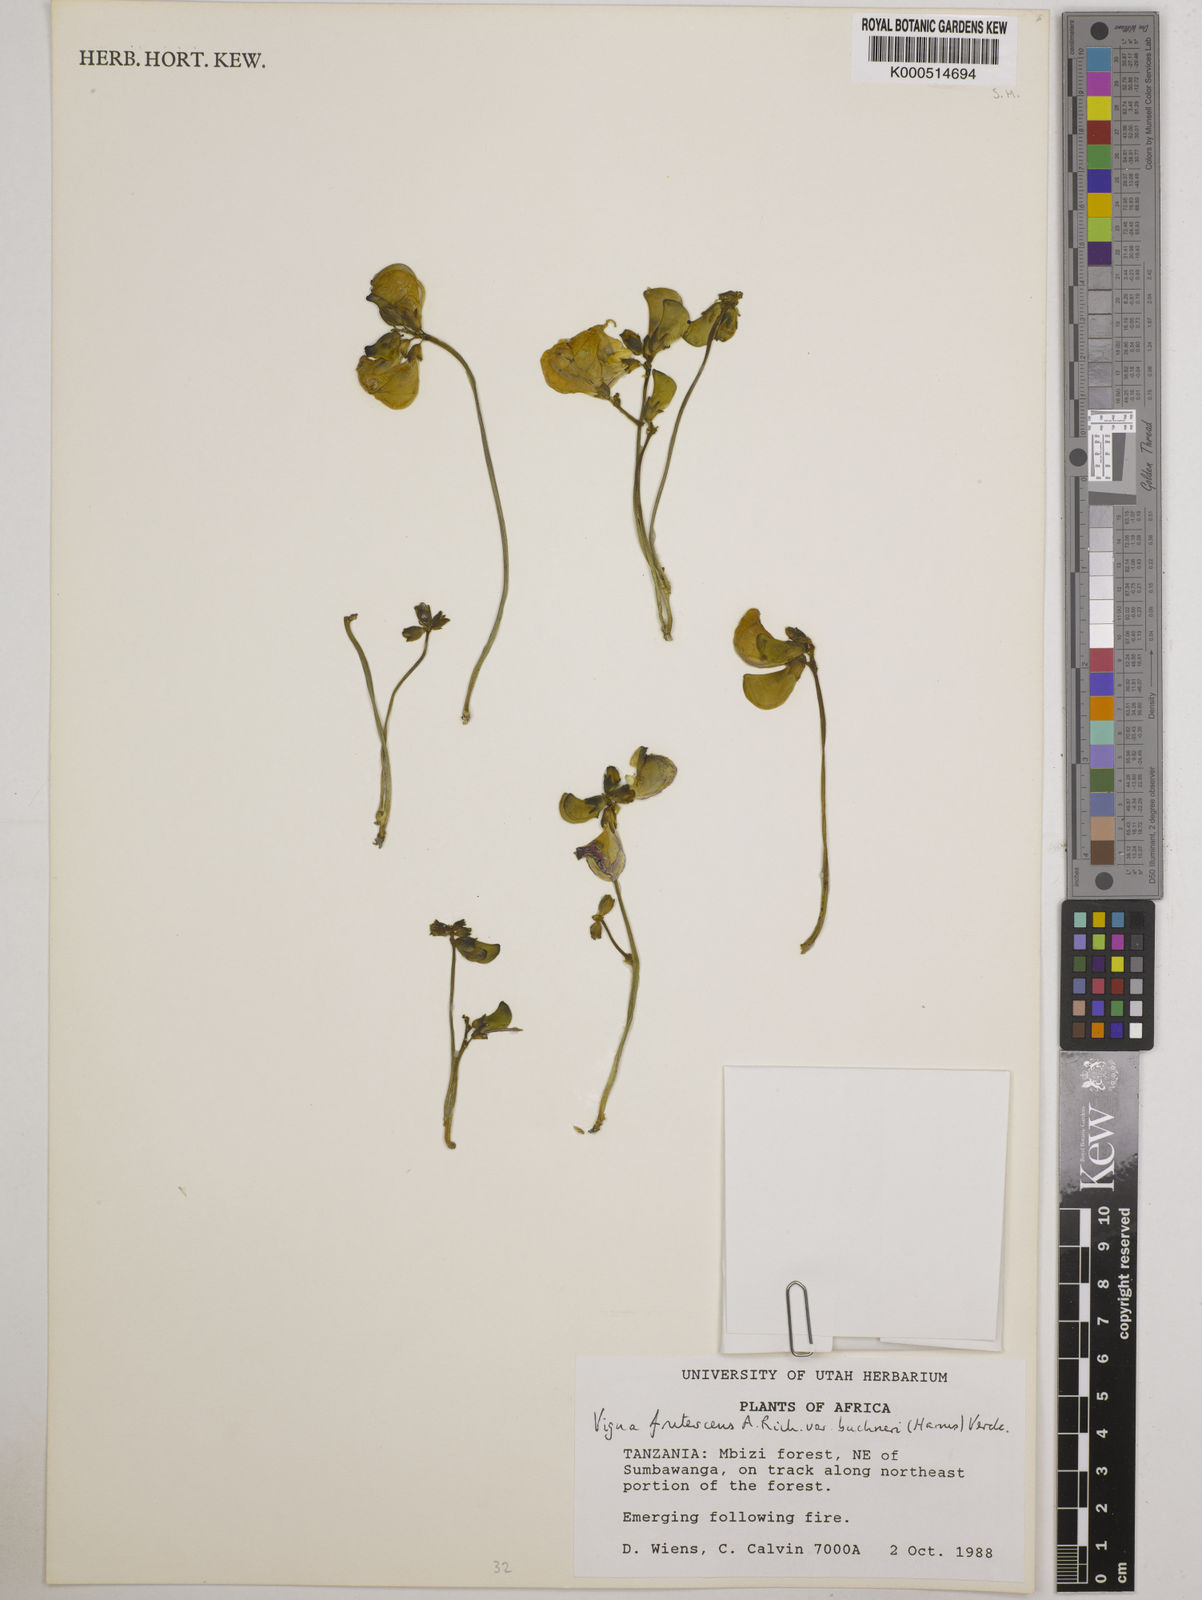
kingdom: Plantae
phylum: Tracheophyta
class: Magnoliopsida
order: Fabales
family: Fabaceae
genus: Vigna
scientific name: Vigna
